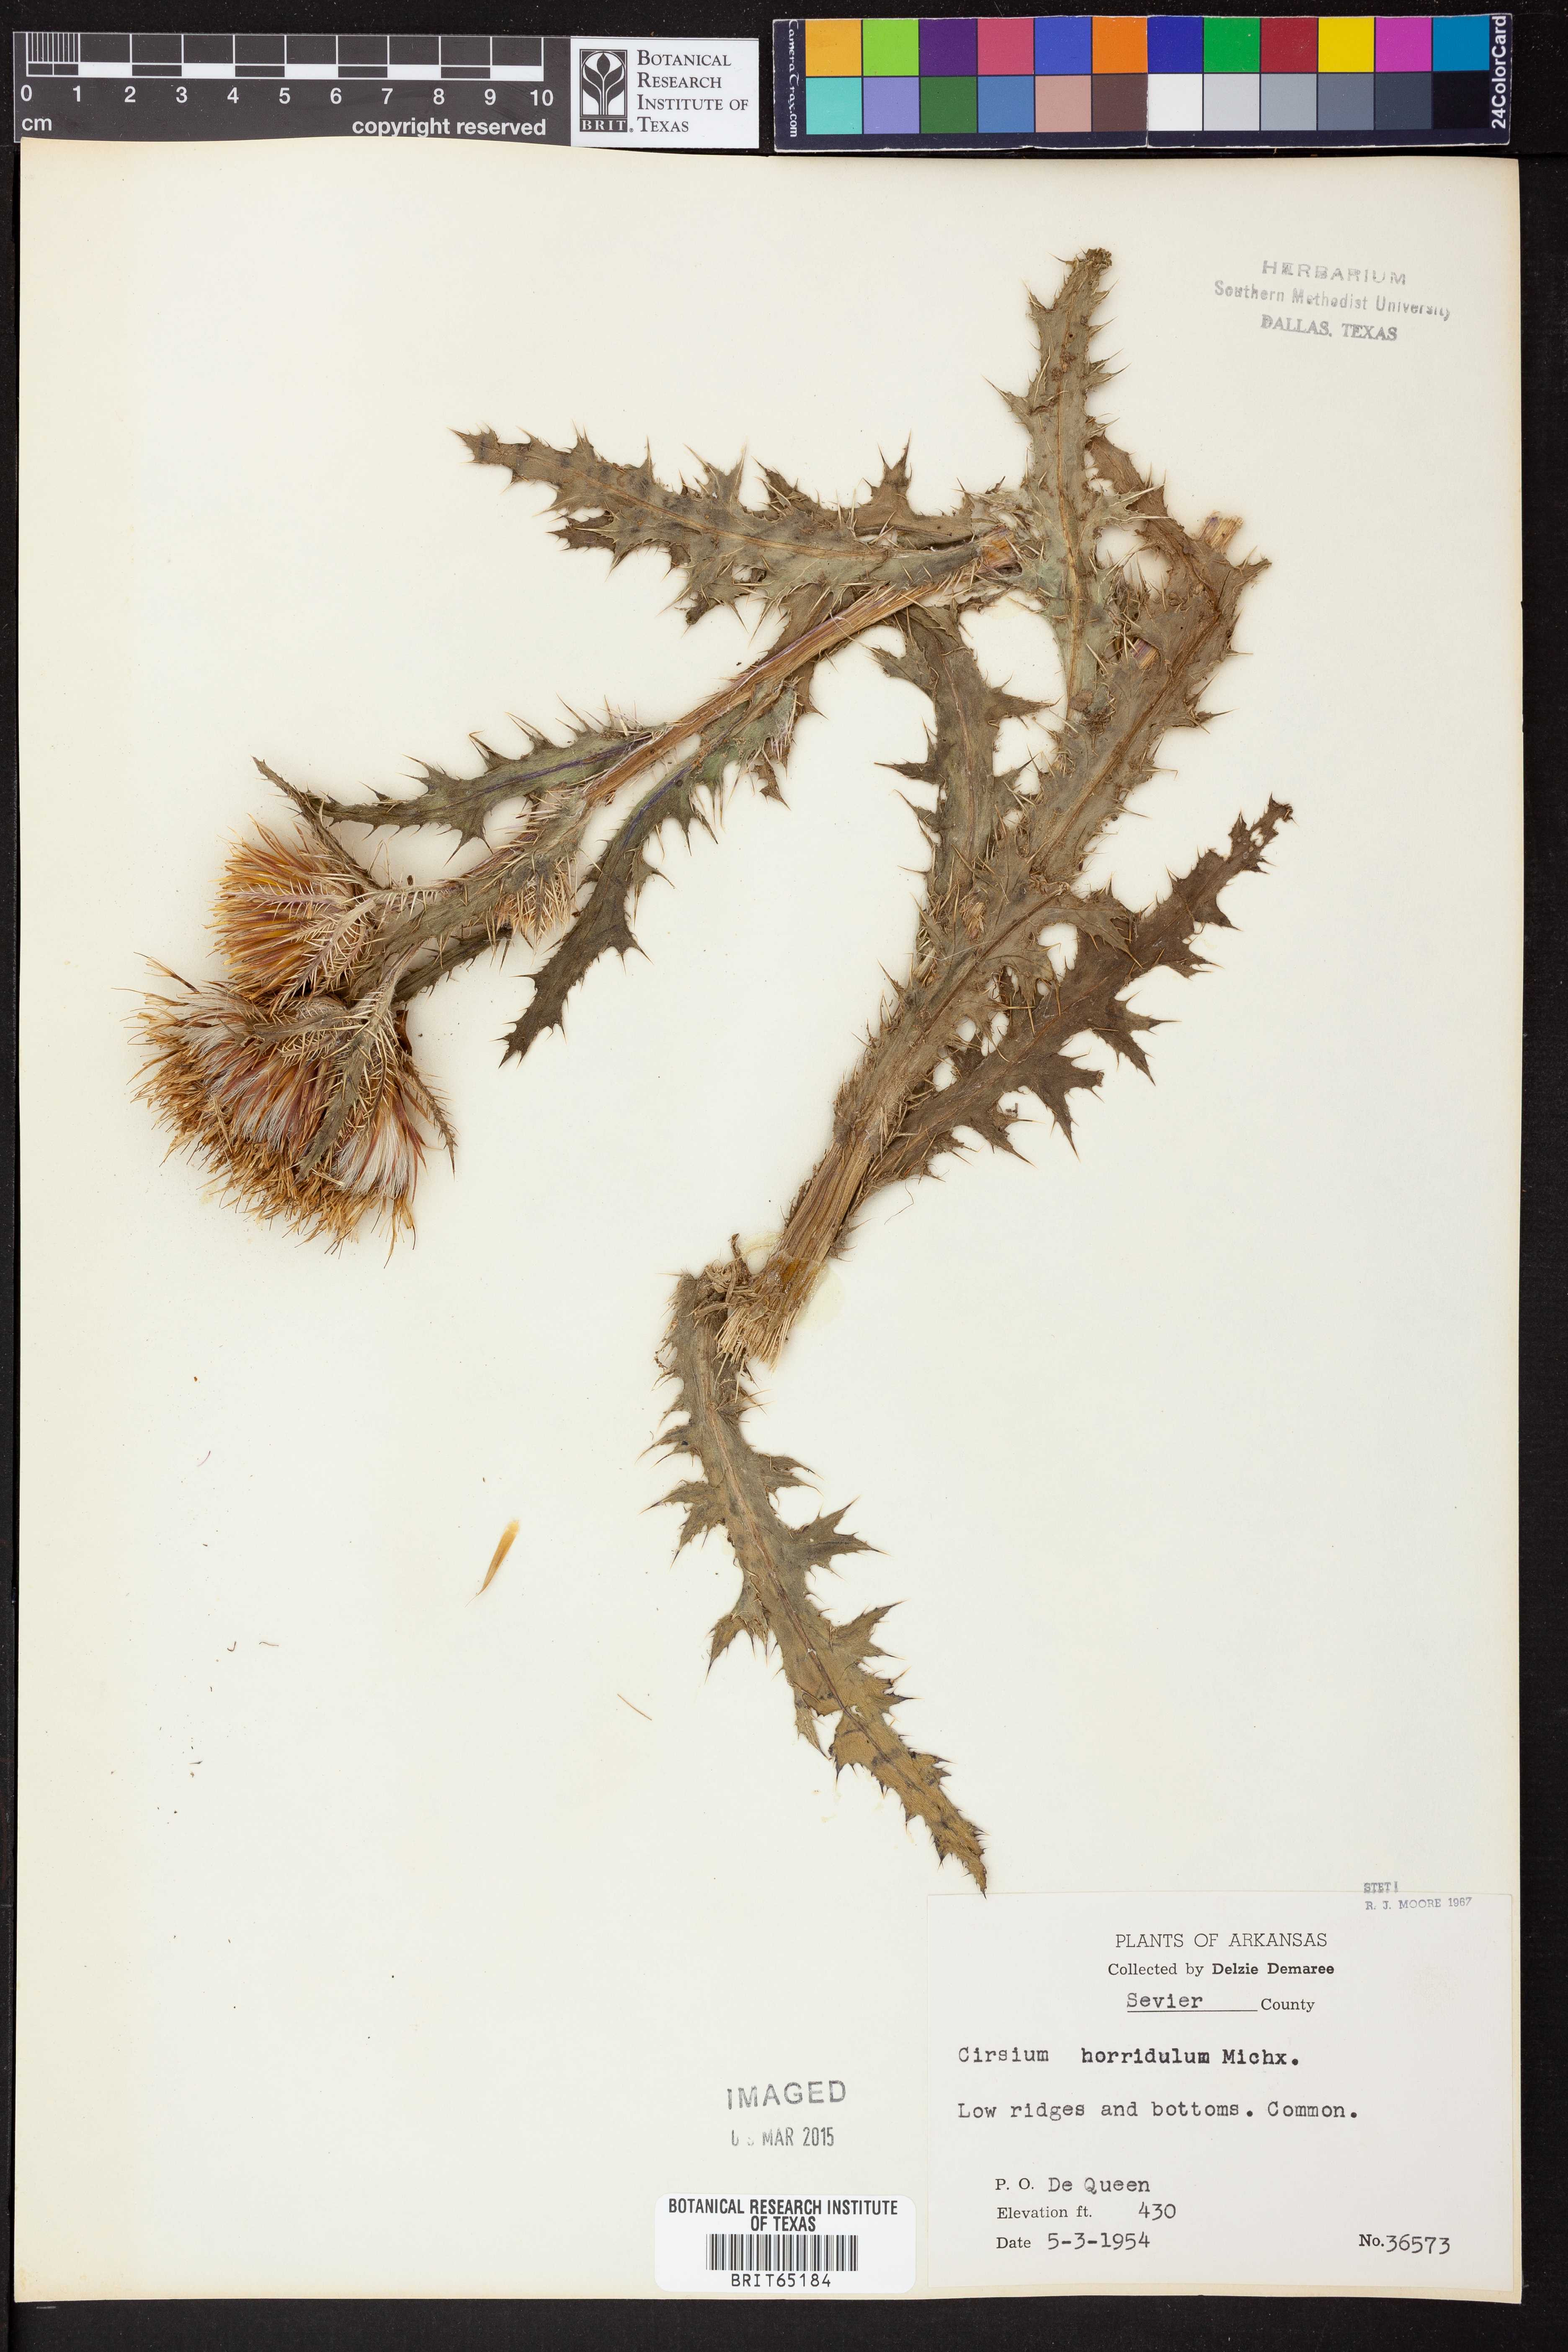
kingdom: Plantae
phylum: Tracheophyta
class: Magnoliopsida
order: Asterales
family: Asteraceae
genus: Cirsium
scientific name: Cirsium horridulum
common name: Bristly thistle
